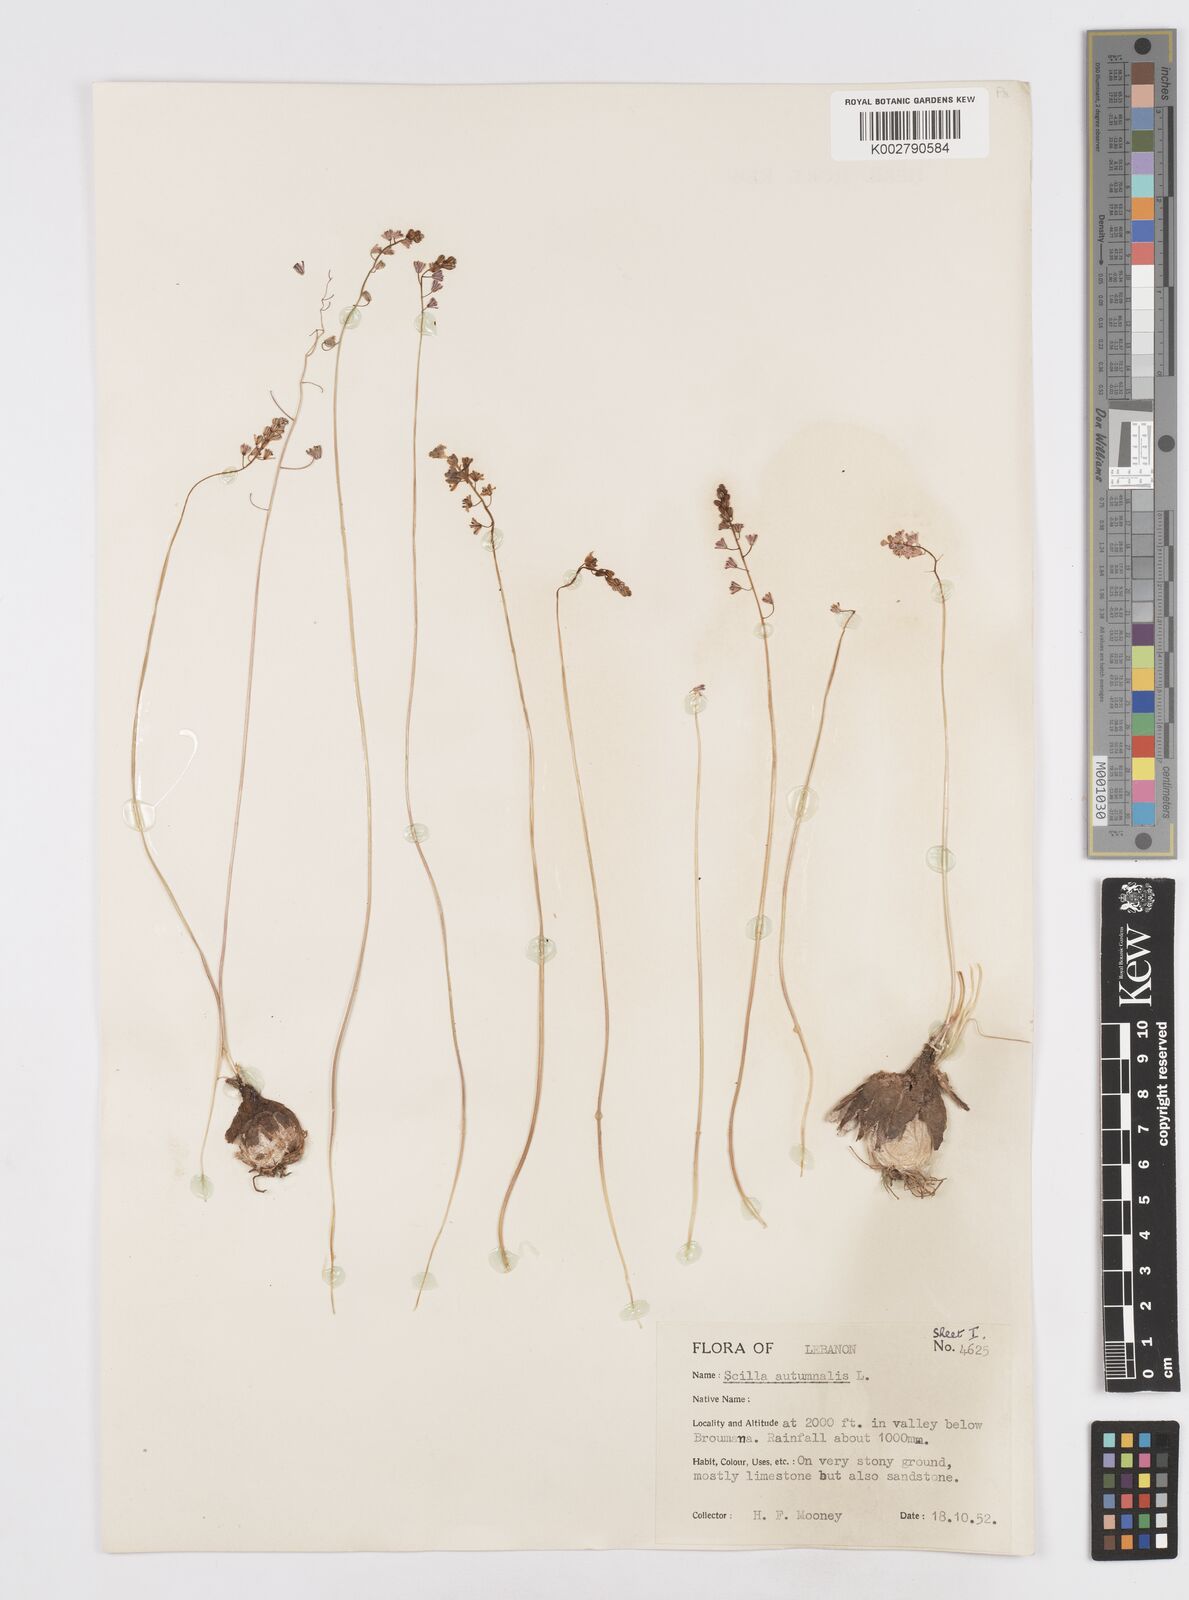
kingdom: Plantae
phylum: Tracheophyta
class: Liliopsida
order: Asparagales
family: Asparagaceae
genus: Prospero
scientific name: Prospero autumnale
